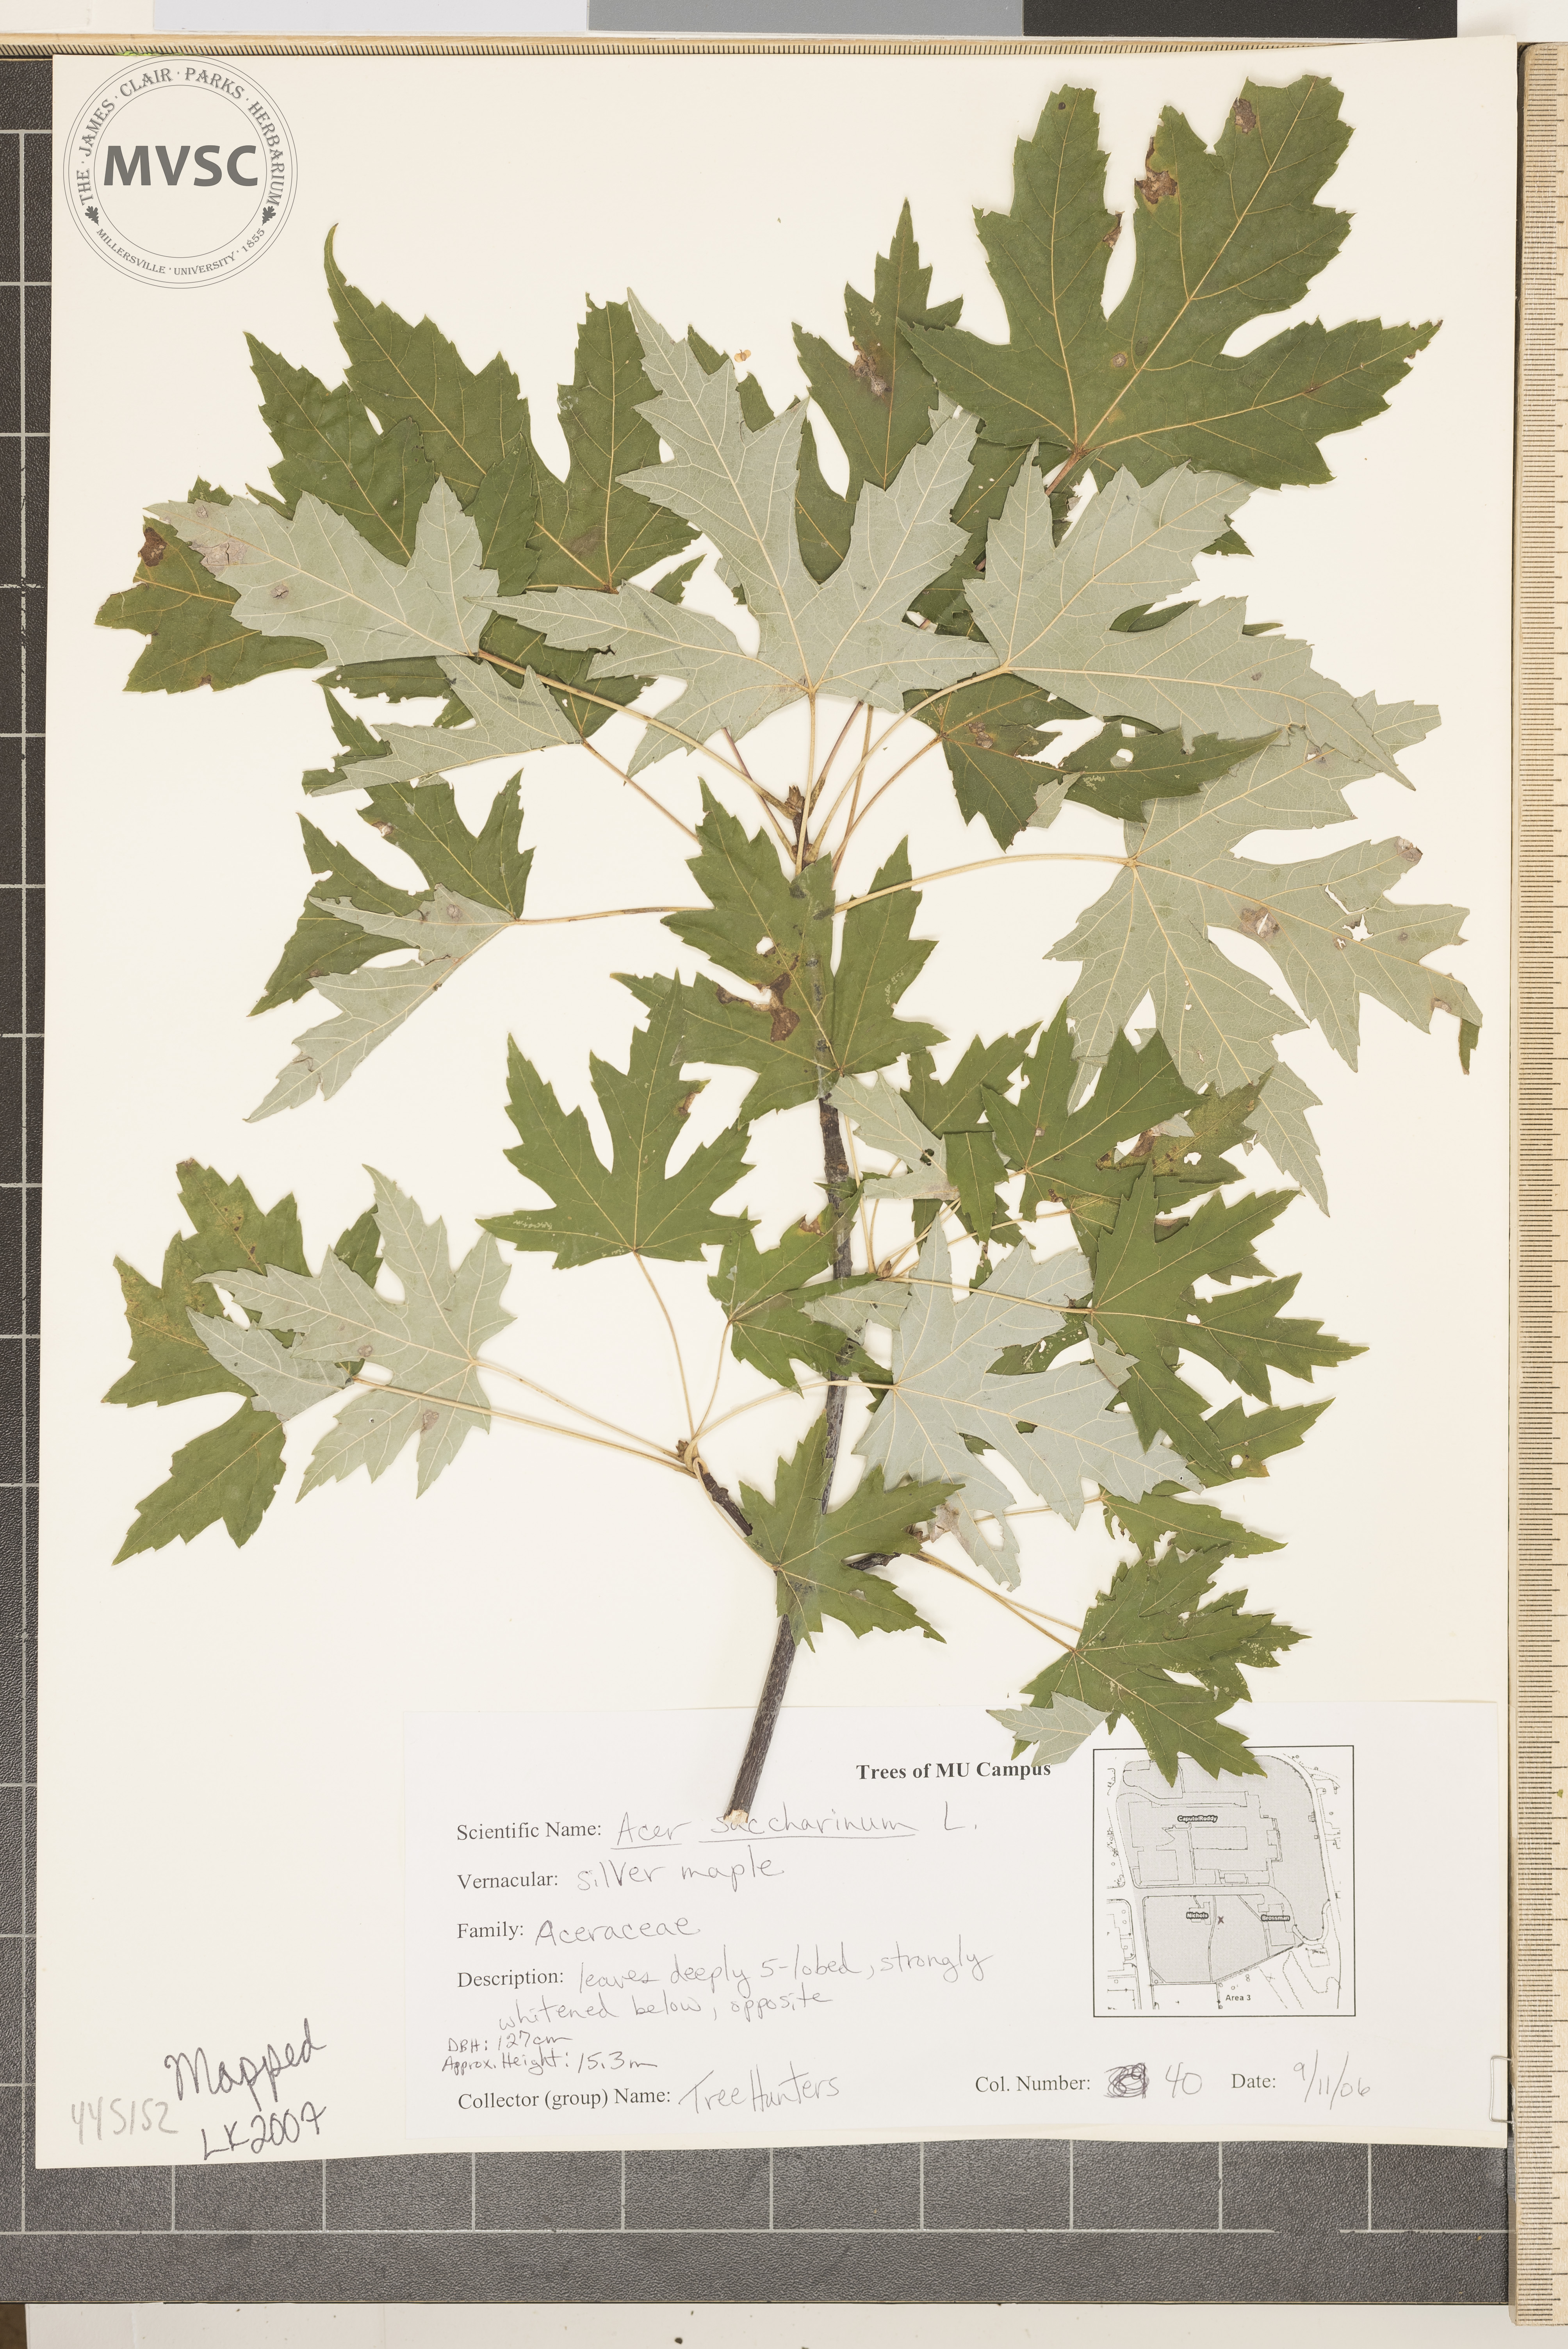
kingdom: Plantae
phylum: Tracheophyta
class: Magnoliopsida
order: Sapindales
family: Sapindaceae
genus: Acer
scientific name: Acer saccharinum
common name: Silver maple
